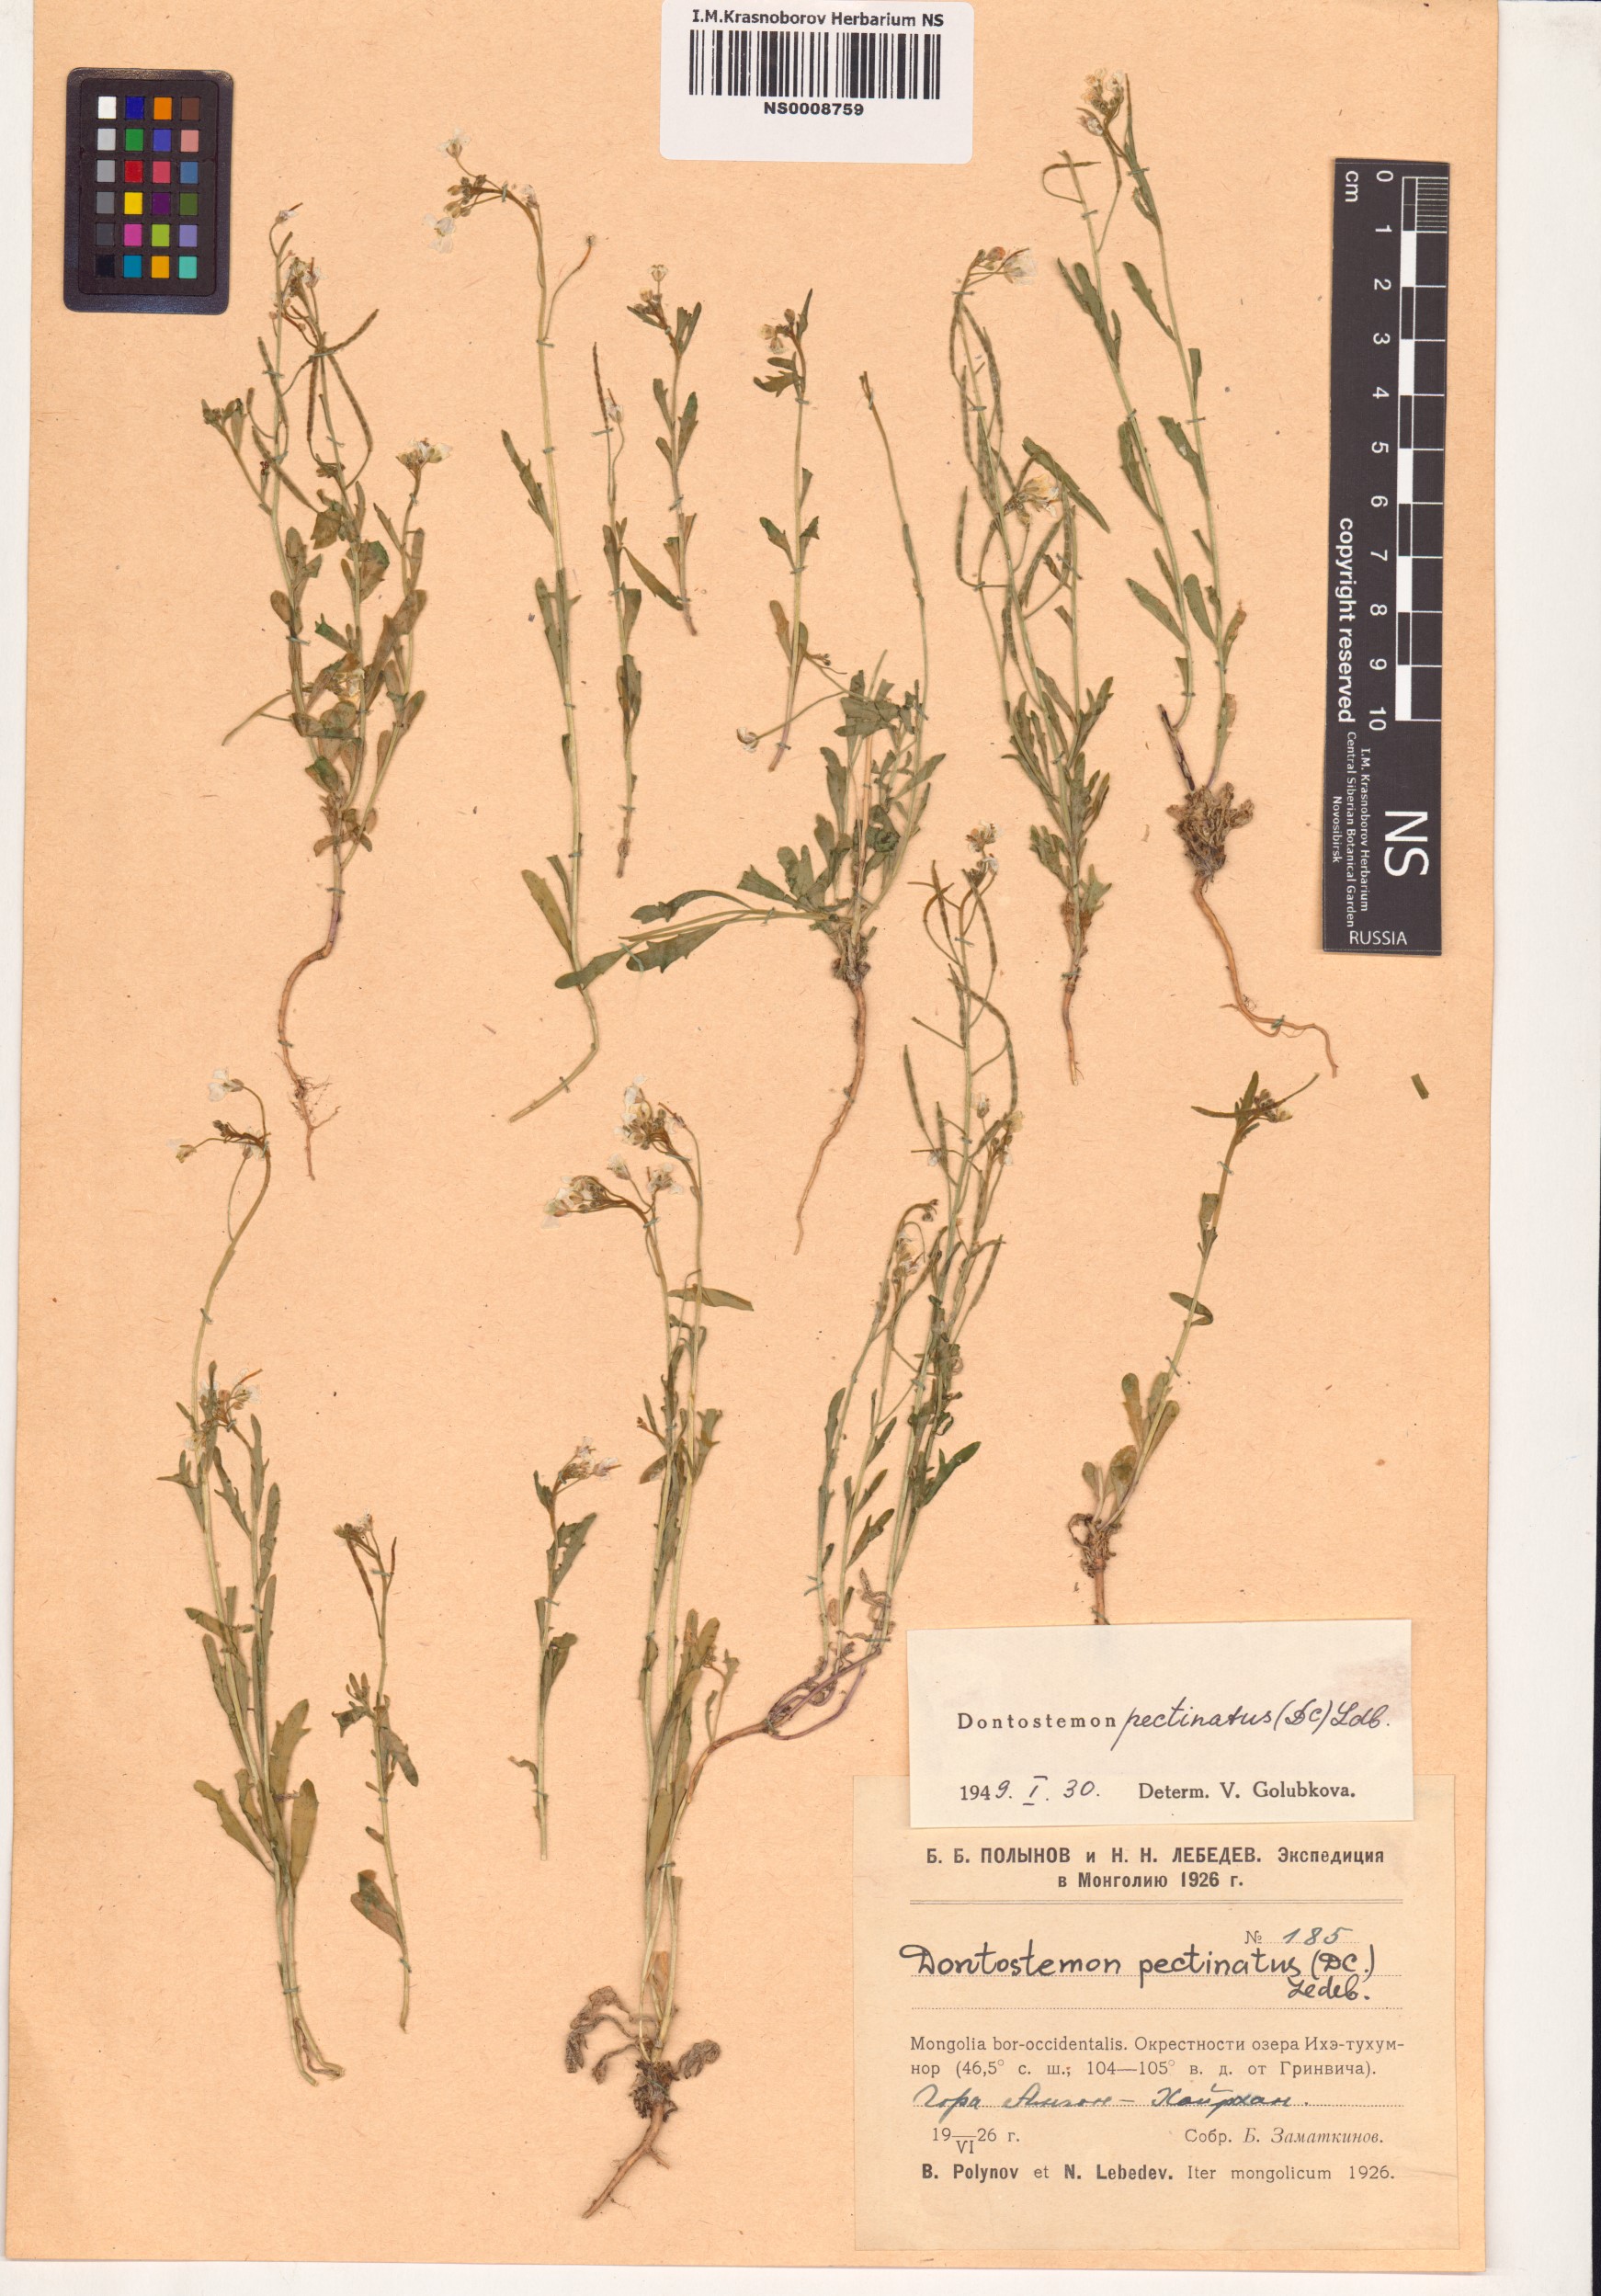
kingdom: Plantae
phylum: Tracheophyta
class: Magnoliopsida
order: Brassicales
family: Brassicaceae
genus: Dontostemon
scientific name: Dontostemon pinnatifidus
